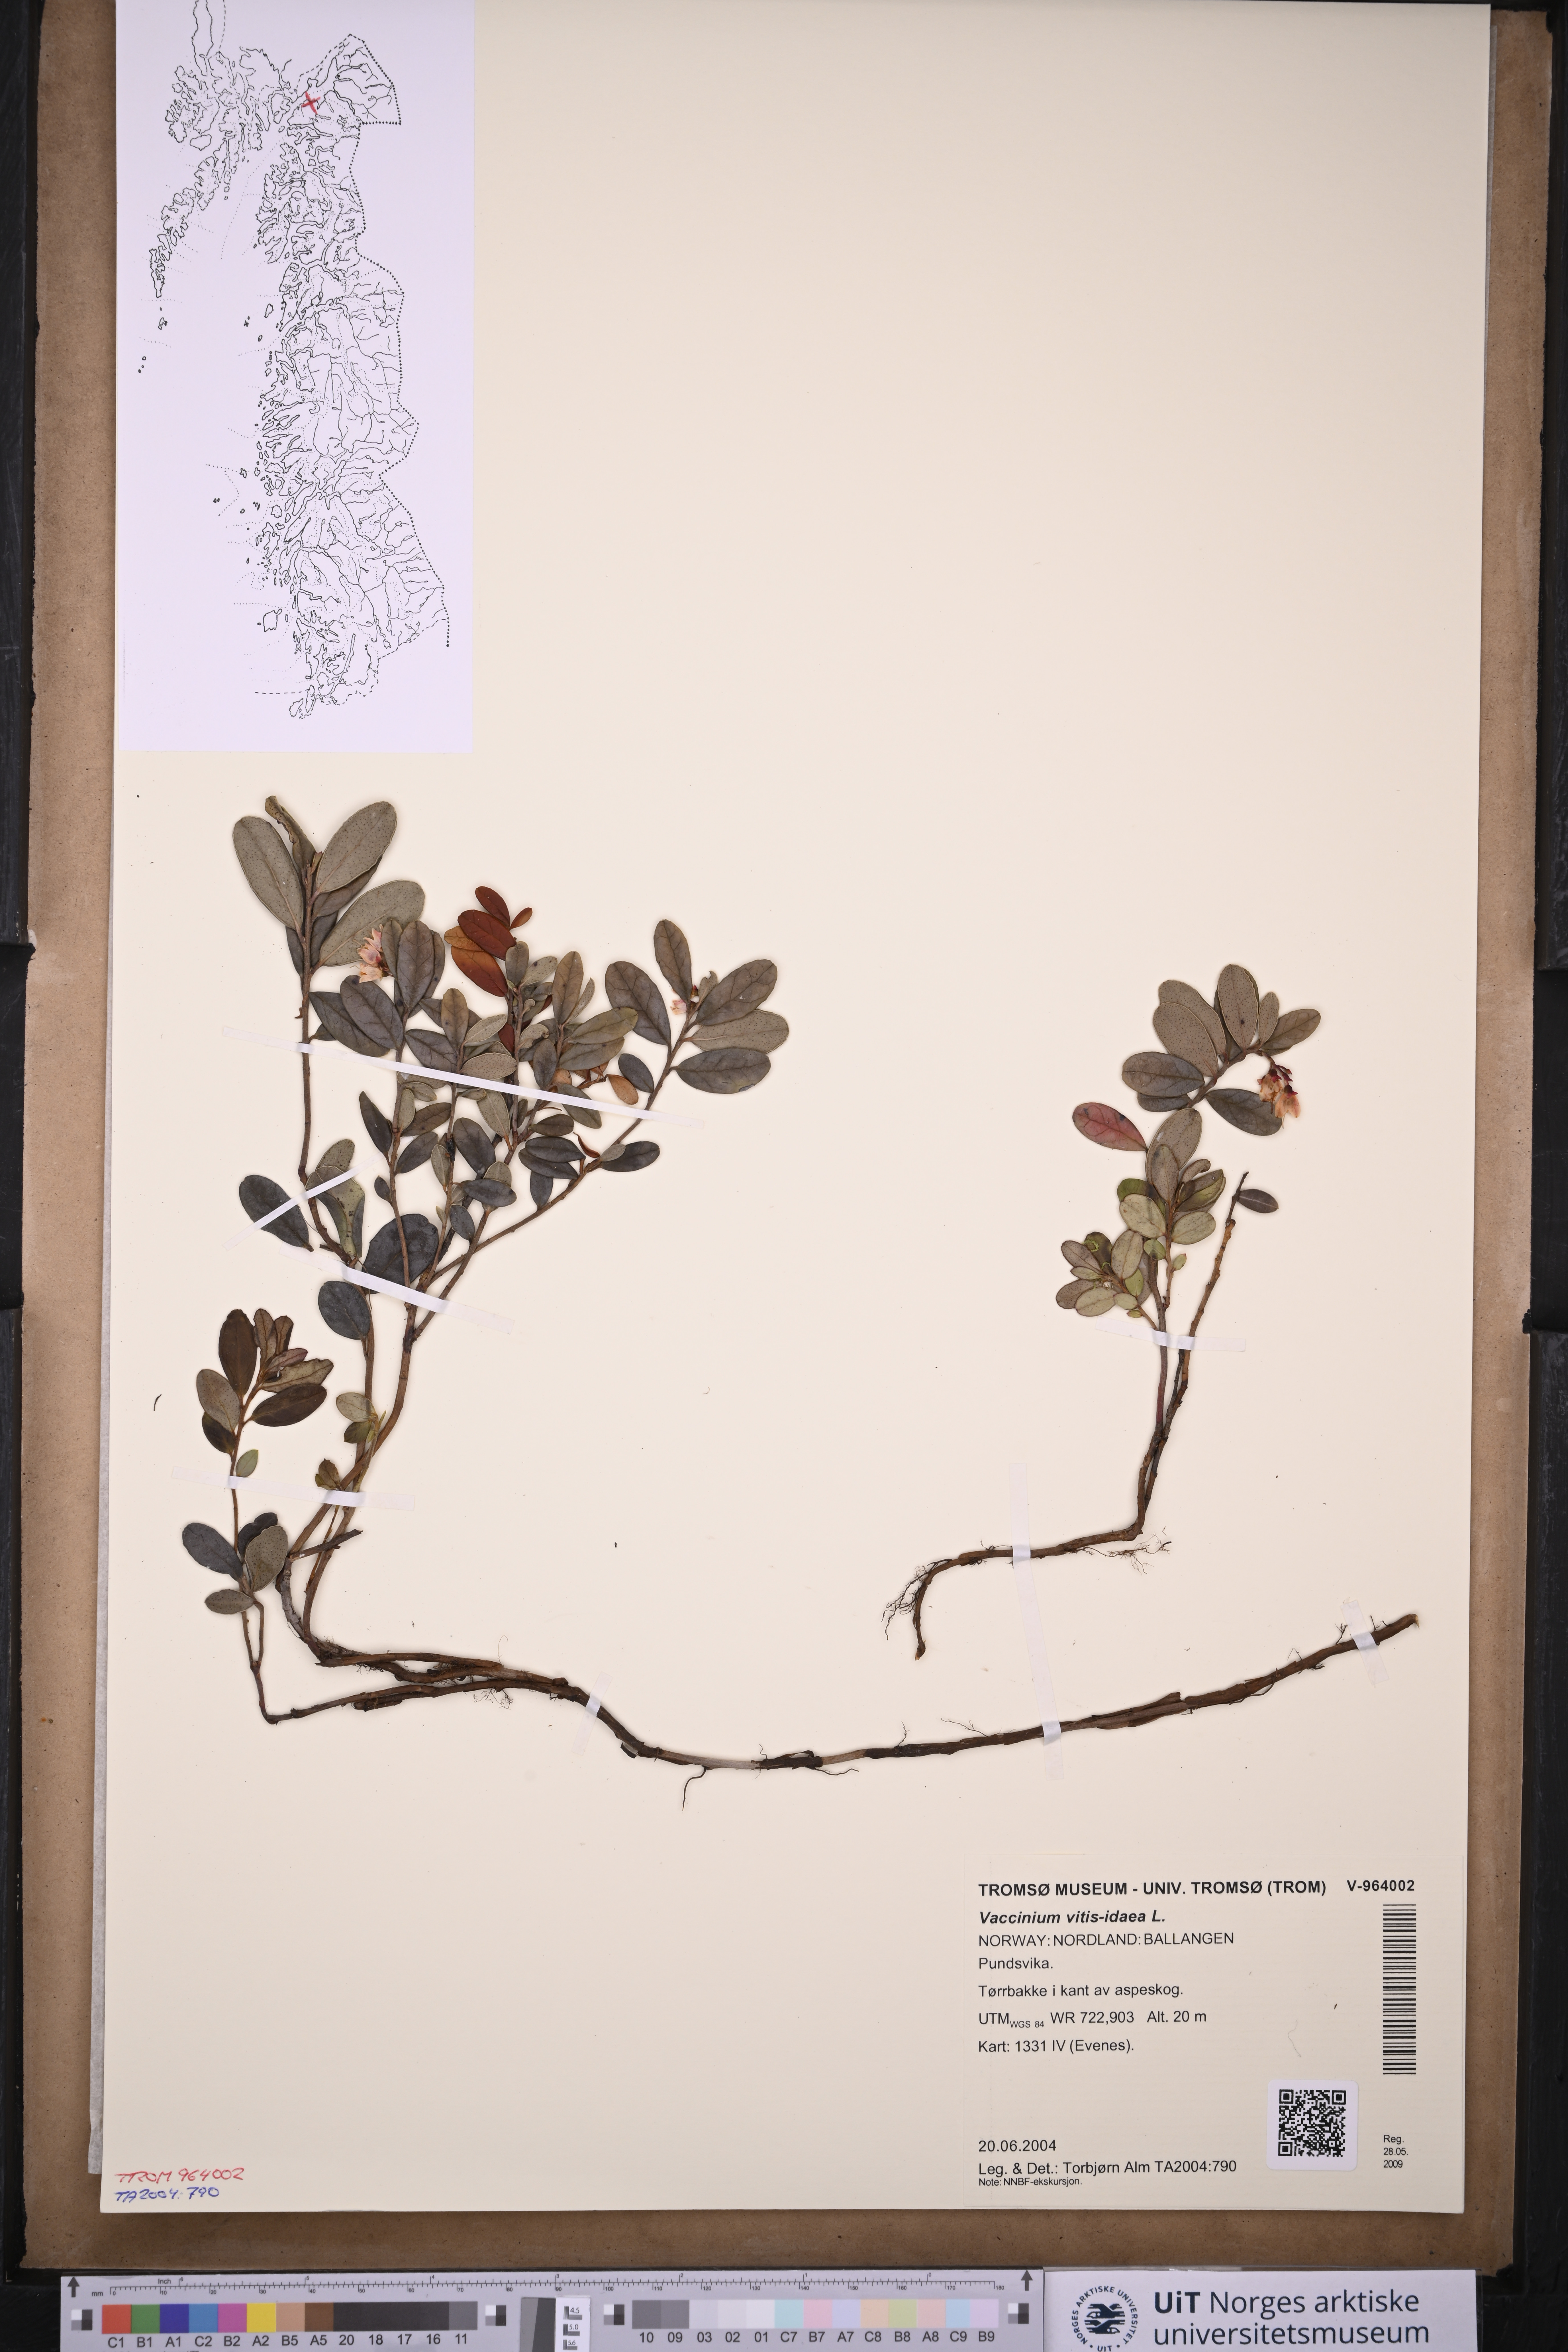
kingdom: Plantae
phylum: Tracheophyta
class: Magnoliopsida
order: Ericales
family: Ericaceae
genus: Vaccinium
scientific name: Vaccinium vitis-idaea
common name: Cowberry
